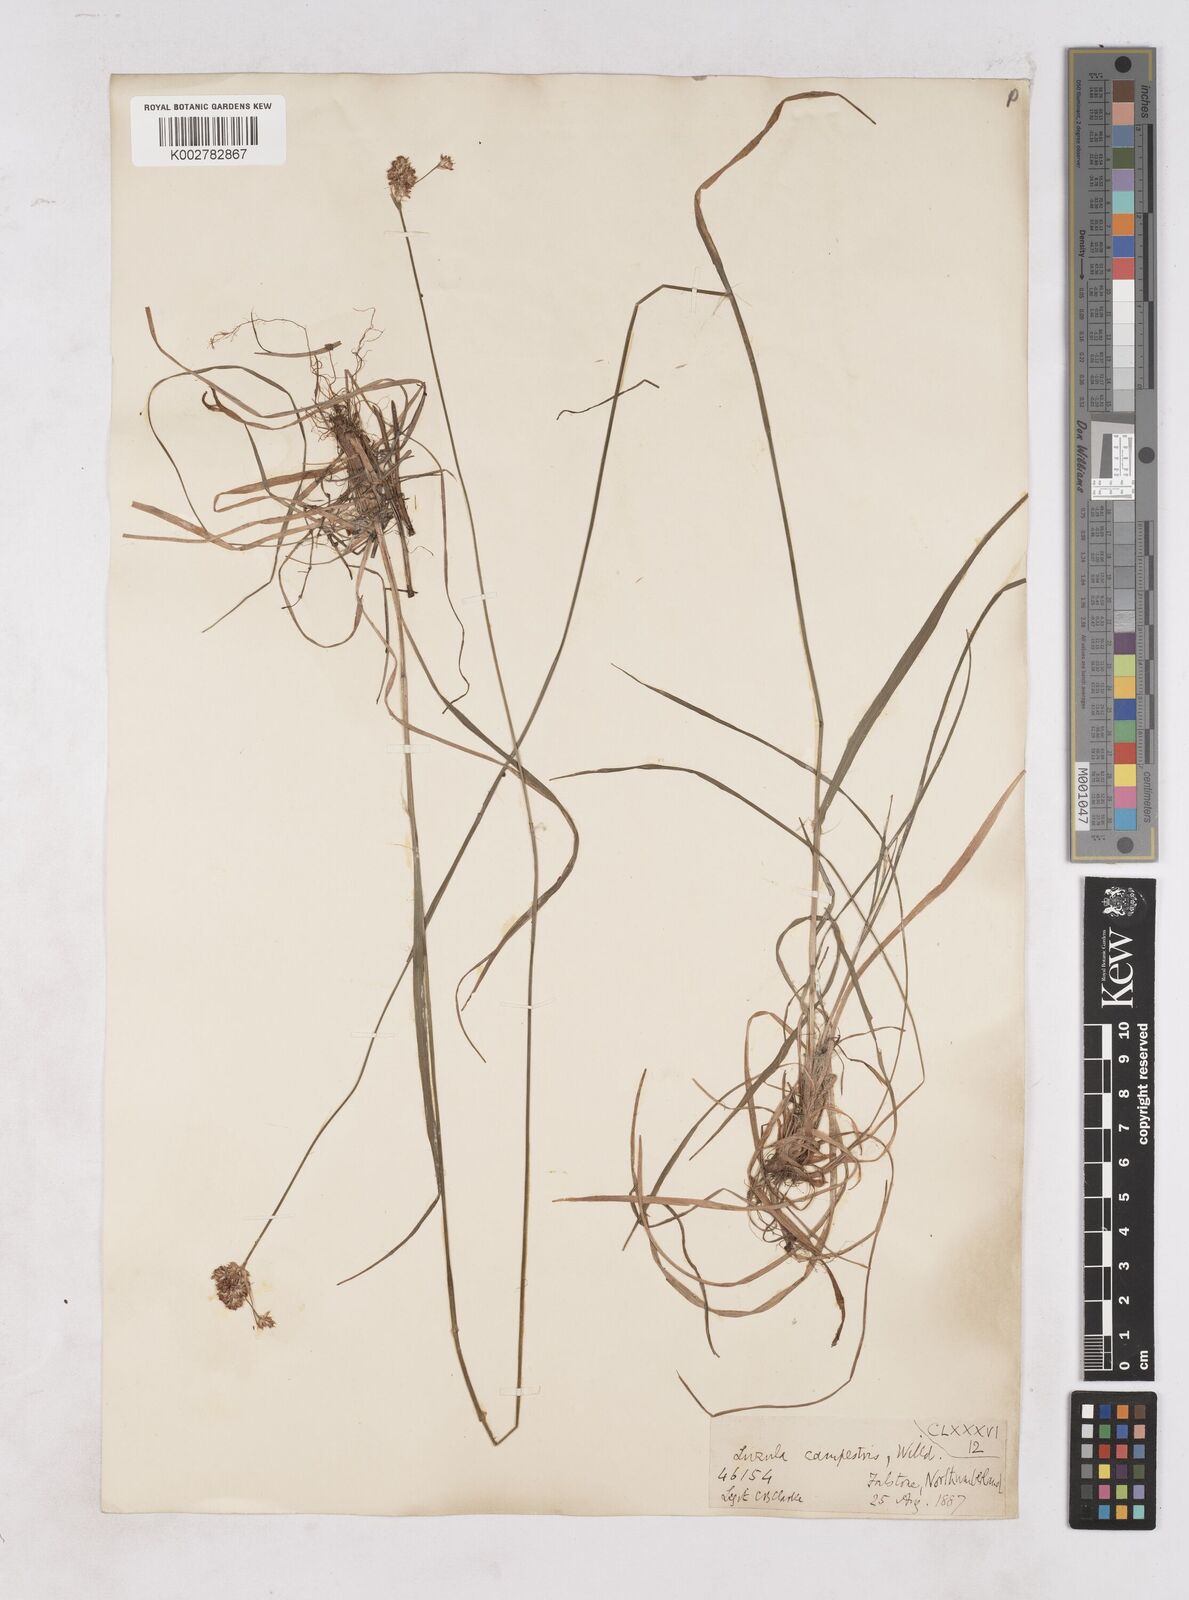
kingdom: Plantae
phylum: Tracheophyta
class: Liliopsida
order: Poales
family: Juncaceae
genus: Luzula
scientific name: Luzula campestris
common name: Field wood-rush
